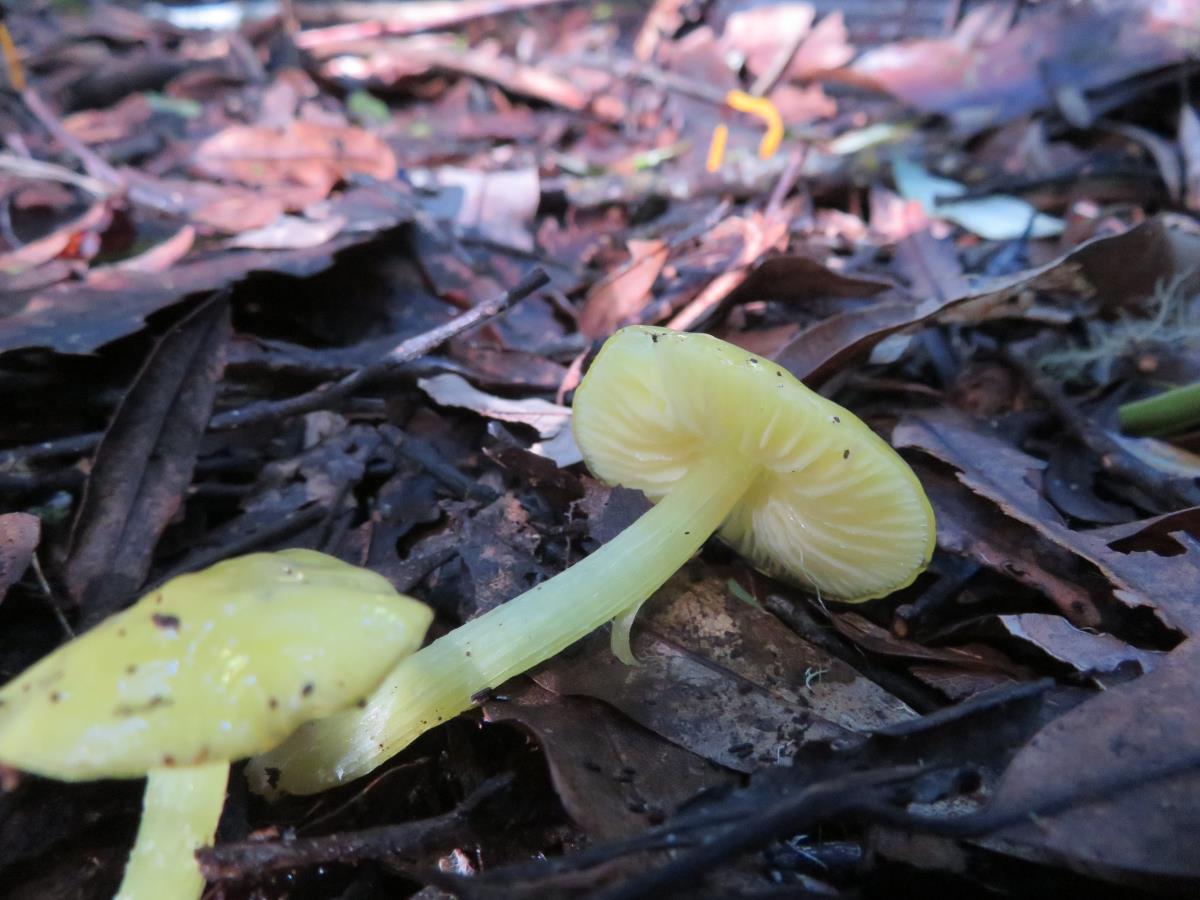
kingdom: Fungi
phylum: Basidiomycota
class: Agaricomycetes
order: Agaricales
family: Hygrophoraceae
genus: Hygrocybe
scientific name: Hygrocybe striatolutea
